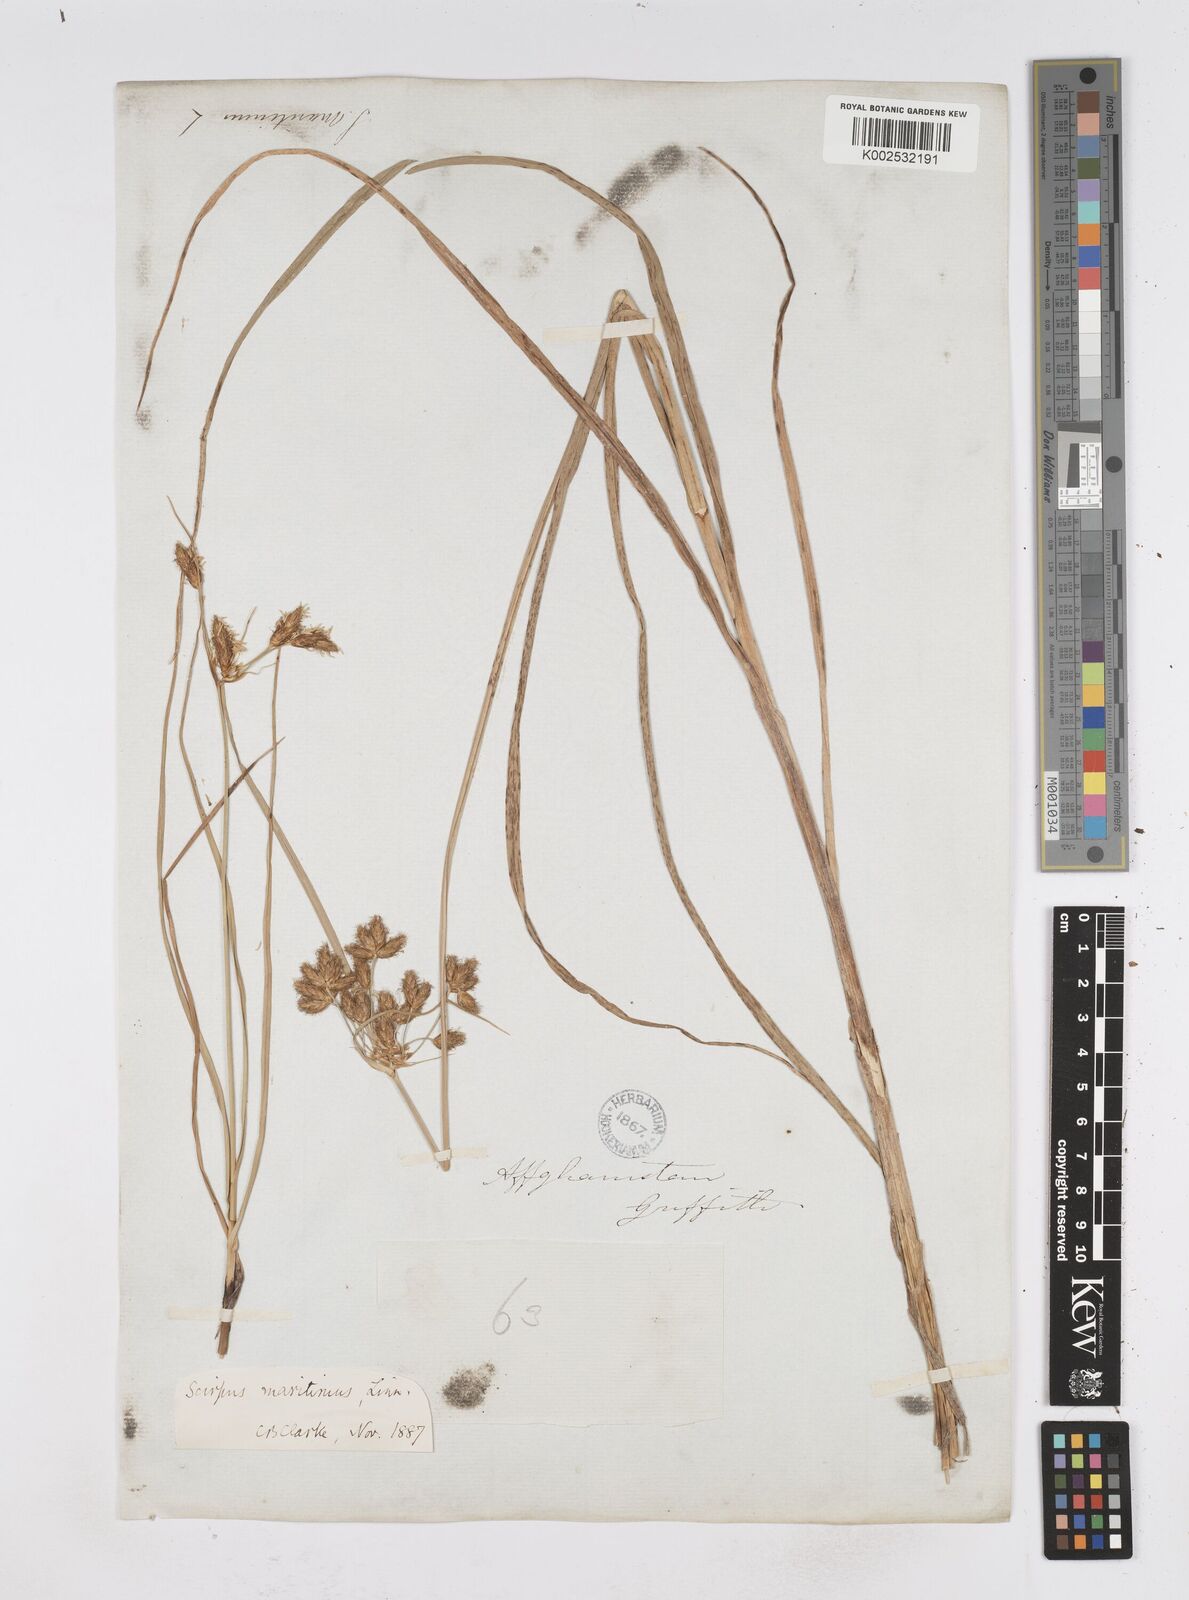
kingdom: Plantae
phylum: Tracheophyta
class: Liliopsida
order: Poales
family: Cyperaceae
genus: Bolboschoenus
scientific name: Bolboschoenus maritimus
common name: Sea club-rush
